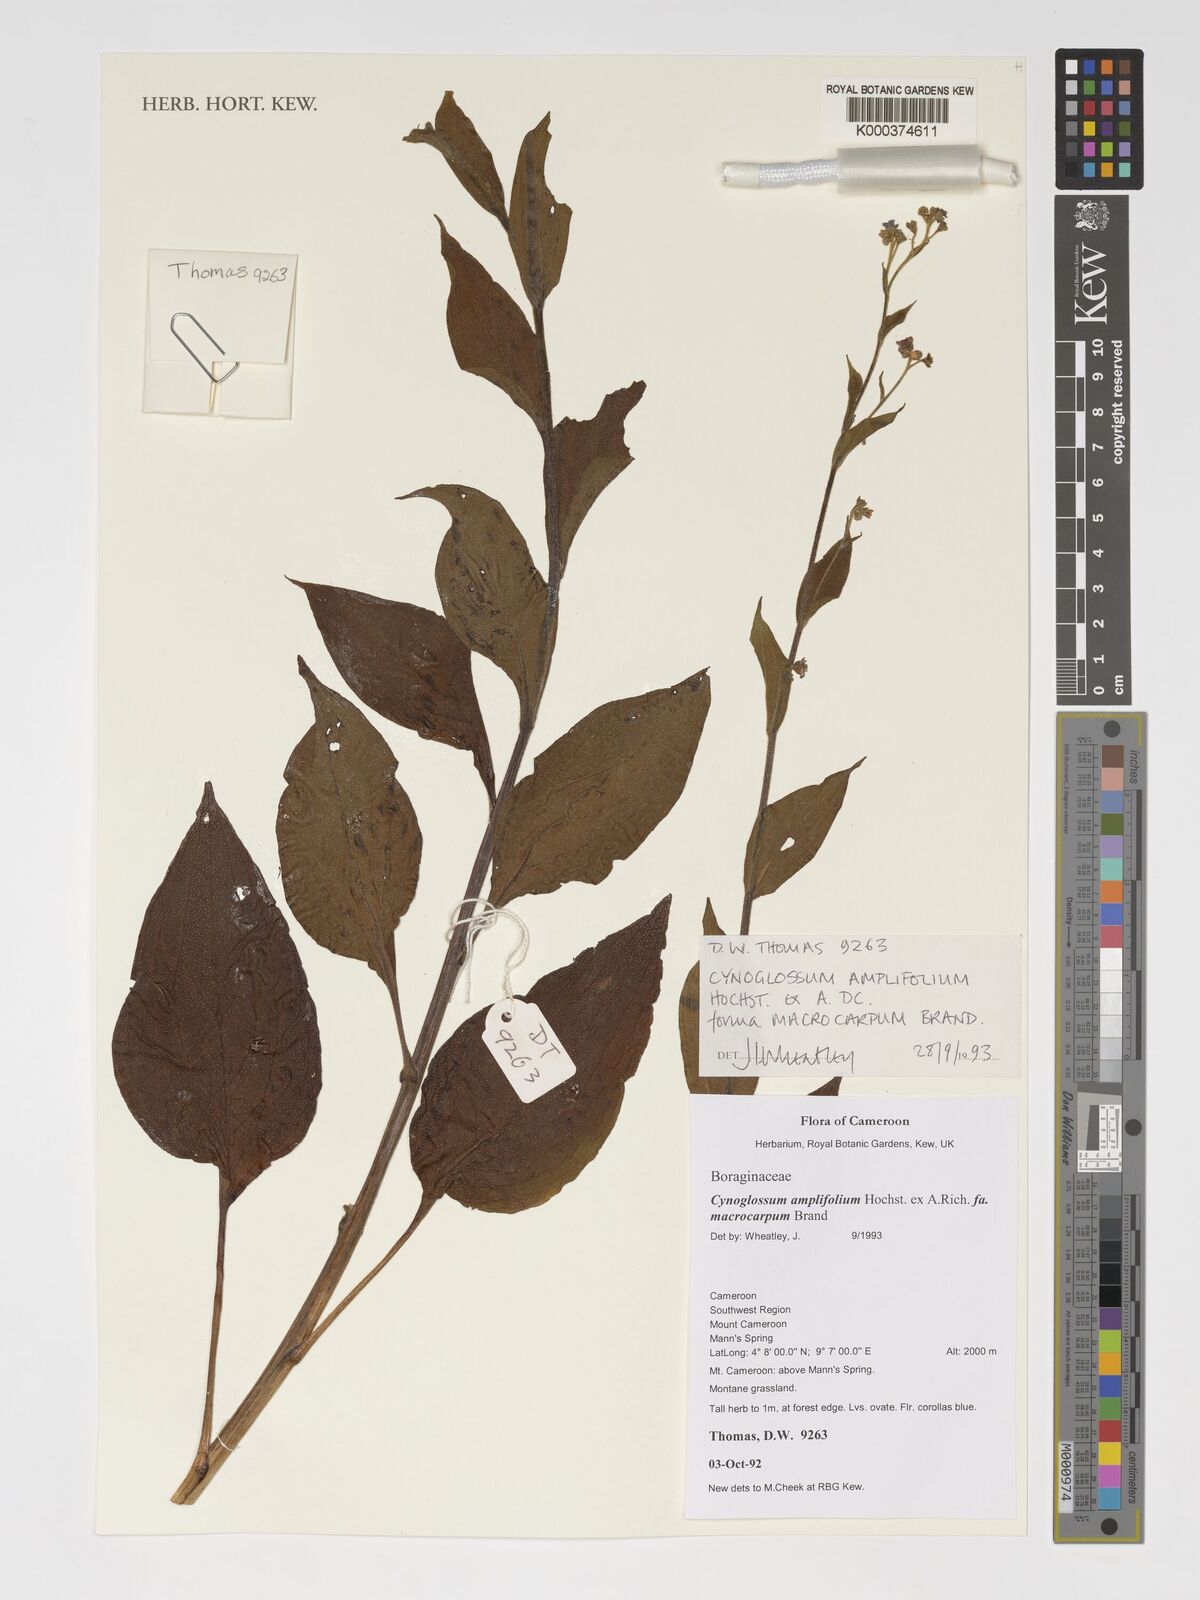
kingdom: Plantae
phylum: Tracheophyta
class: Magnoliopsida
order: Boraginales
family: Boraginaceae
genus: Cynoglossum
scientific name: Cynoglossum amplifolium
